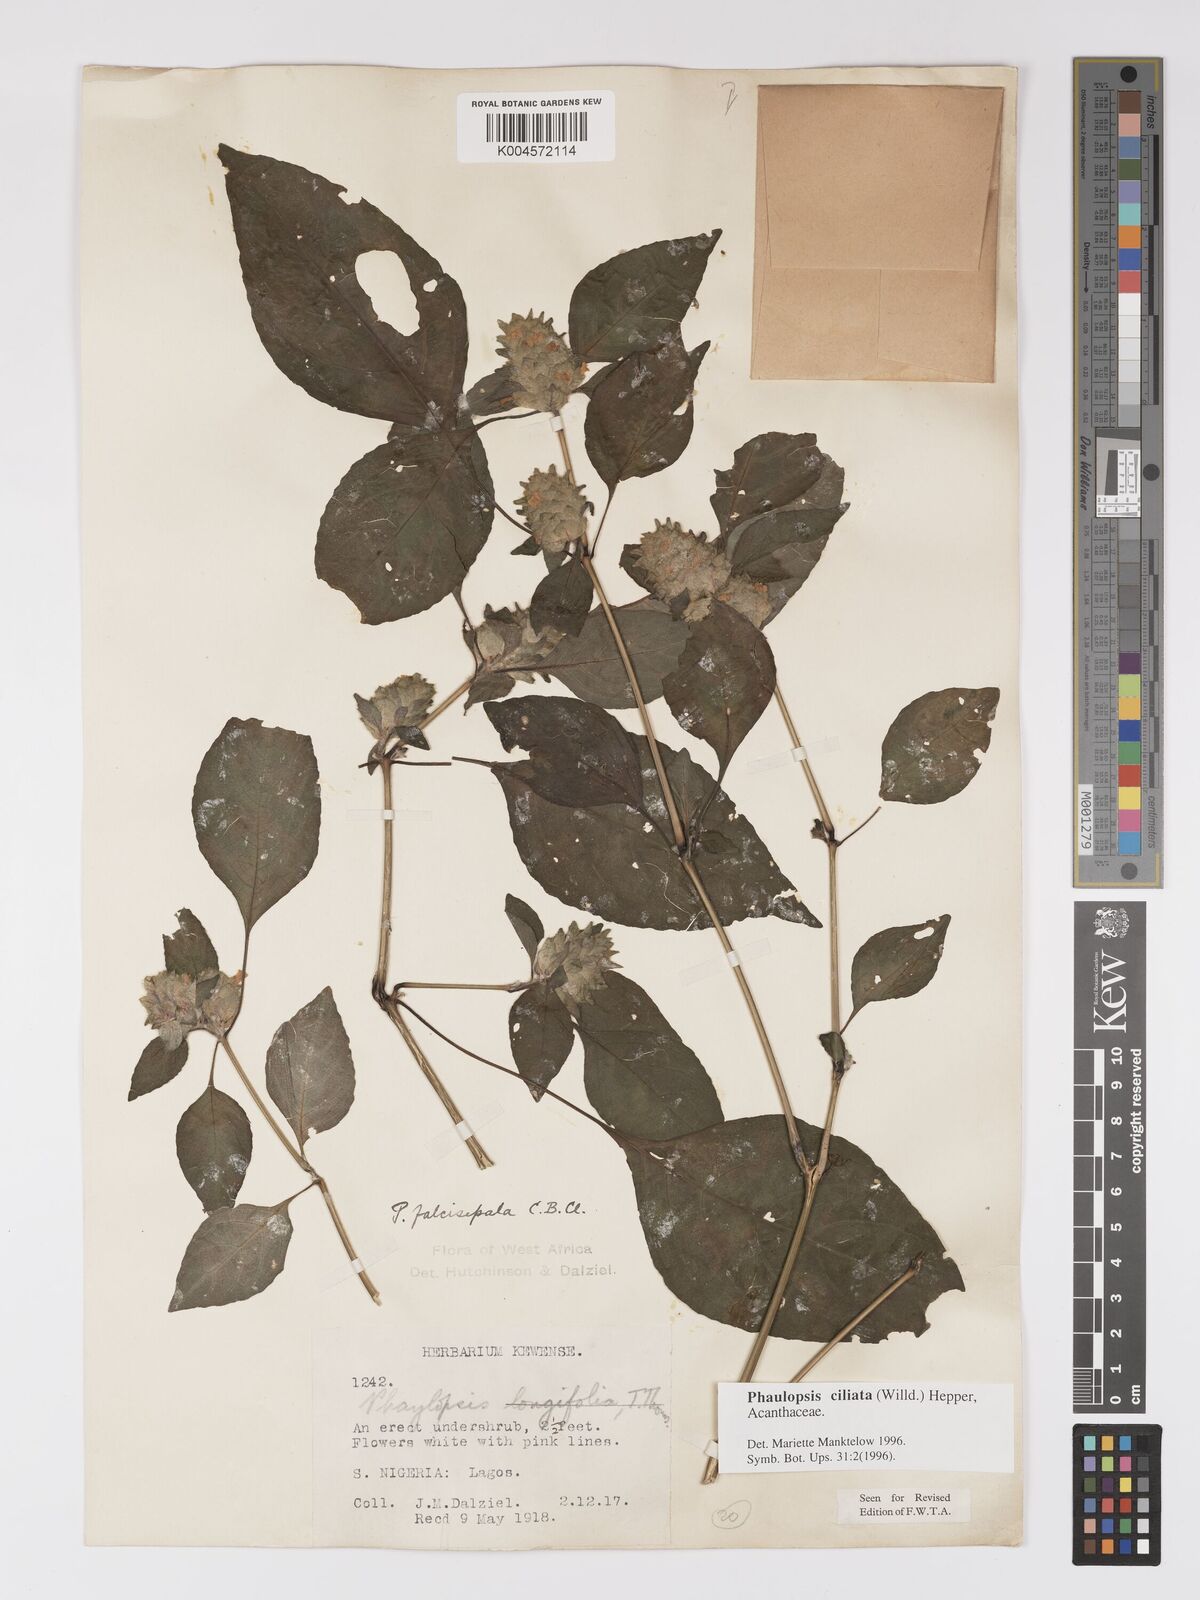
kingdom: Plantae
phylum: Tracheophyta
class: Magnoliopsida
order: Lamiales
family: Acanthaceae
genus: Phaulopsis
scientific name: Phaulopsis ciliata
